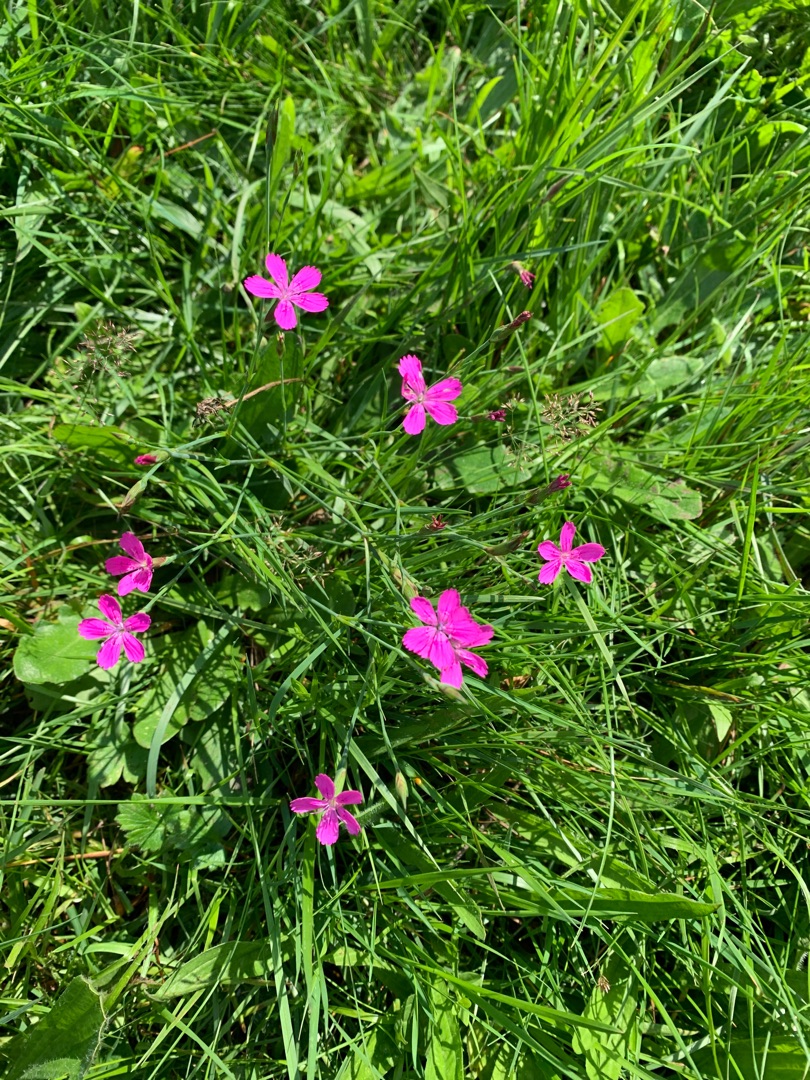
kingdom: Plantae
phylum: Tracheophyta
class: Magnoliopsida
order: Caryophyllales
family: Caryophyllaceae
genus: Dianthus
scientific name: Dianthus deltoides
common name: Bakke-nellike
